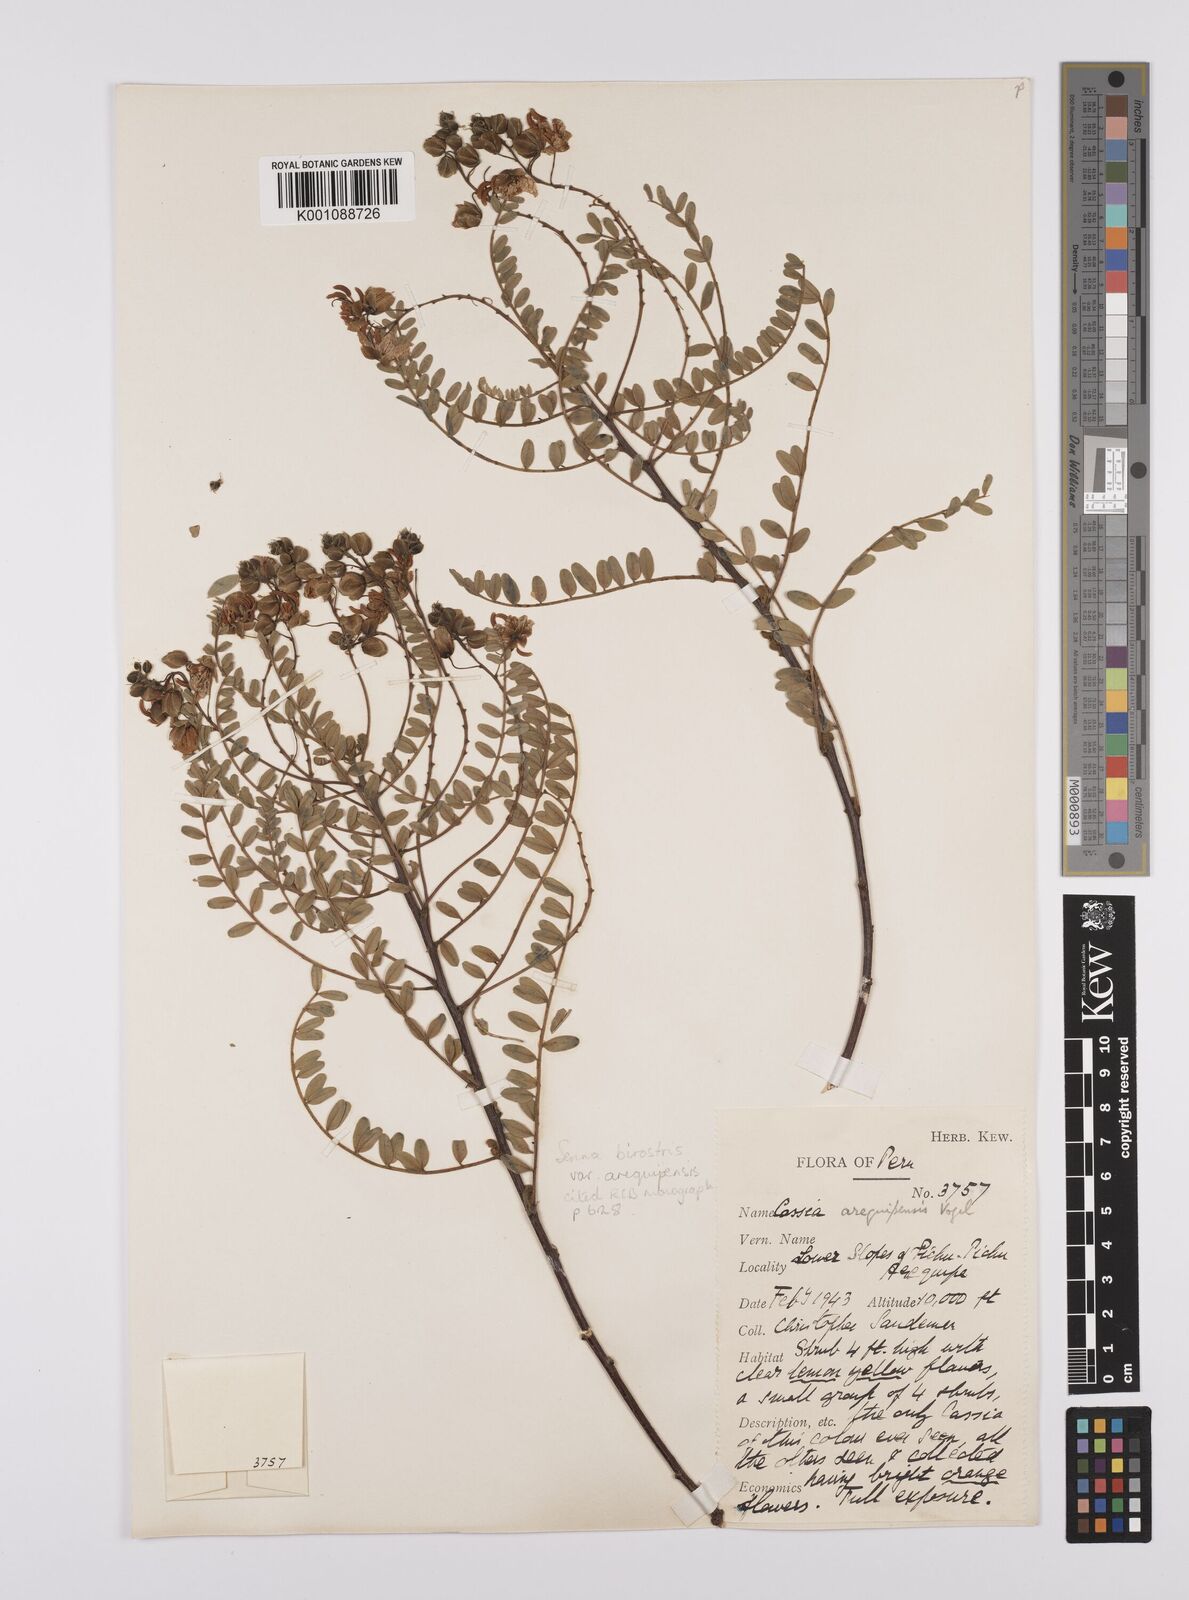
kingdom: Plantae
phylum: Tracheophyta
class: Magnoliopsida
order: Fabales
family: Fabaceae
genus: Senna
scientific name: Senna birostris
